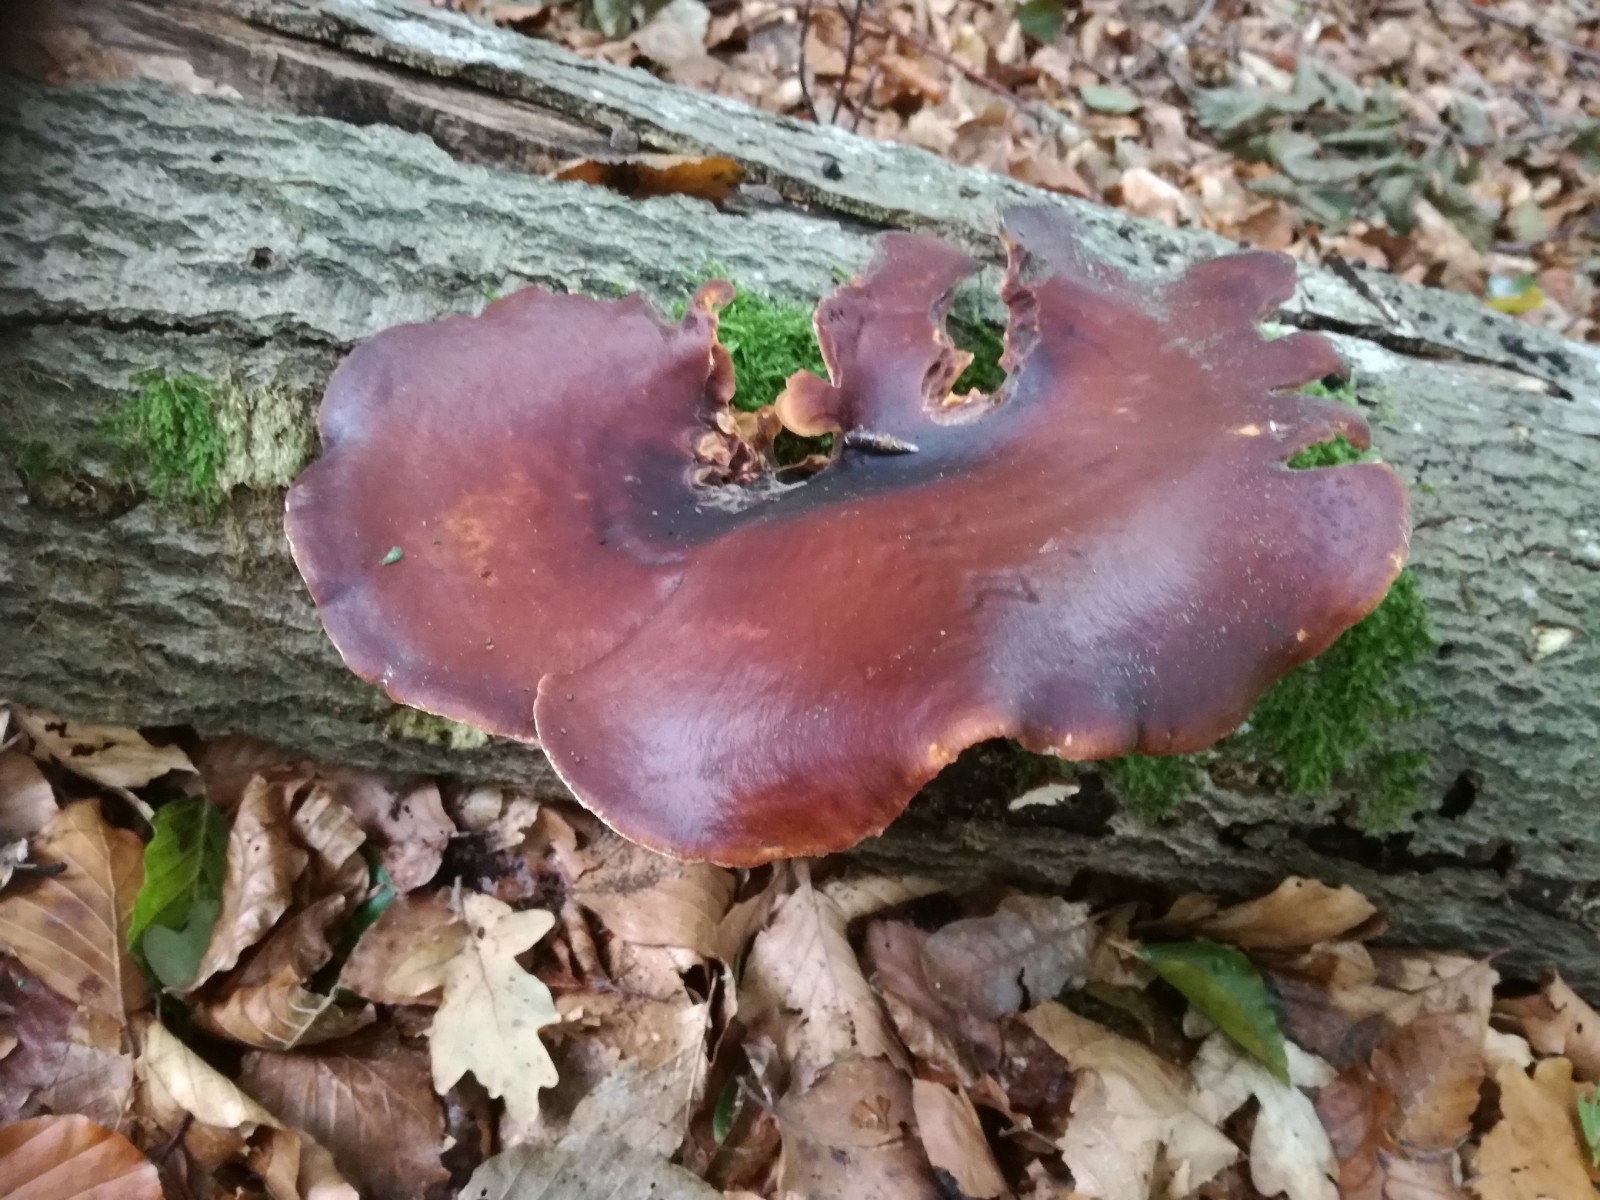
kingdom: Fungi
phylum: Basidiomycota
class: Agaricomycetes
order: Polyporales
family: Polyporaceae
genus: Picipes
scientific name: Picipes badius
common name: kastaniebrun stilkporesvamp
